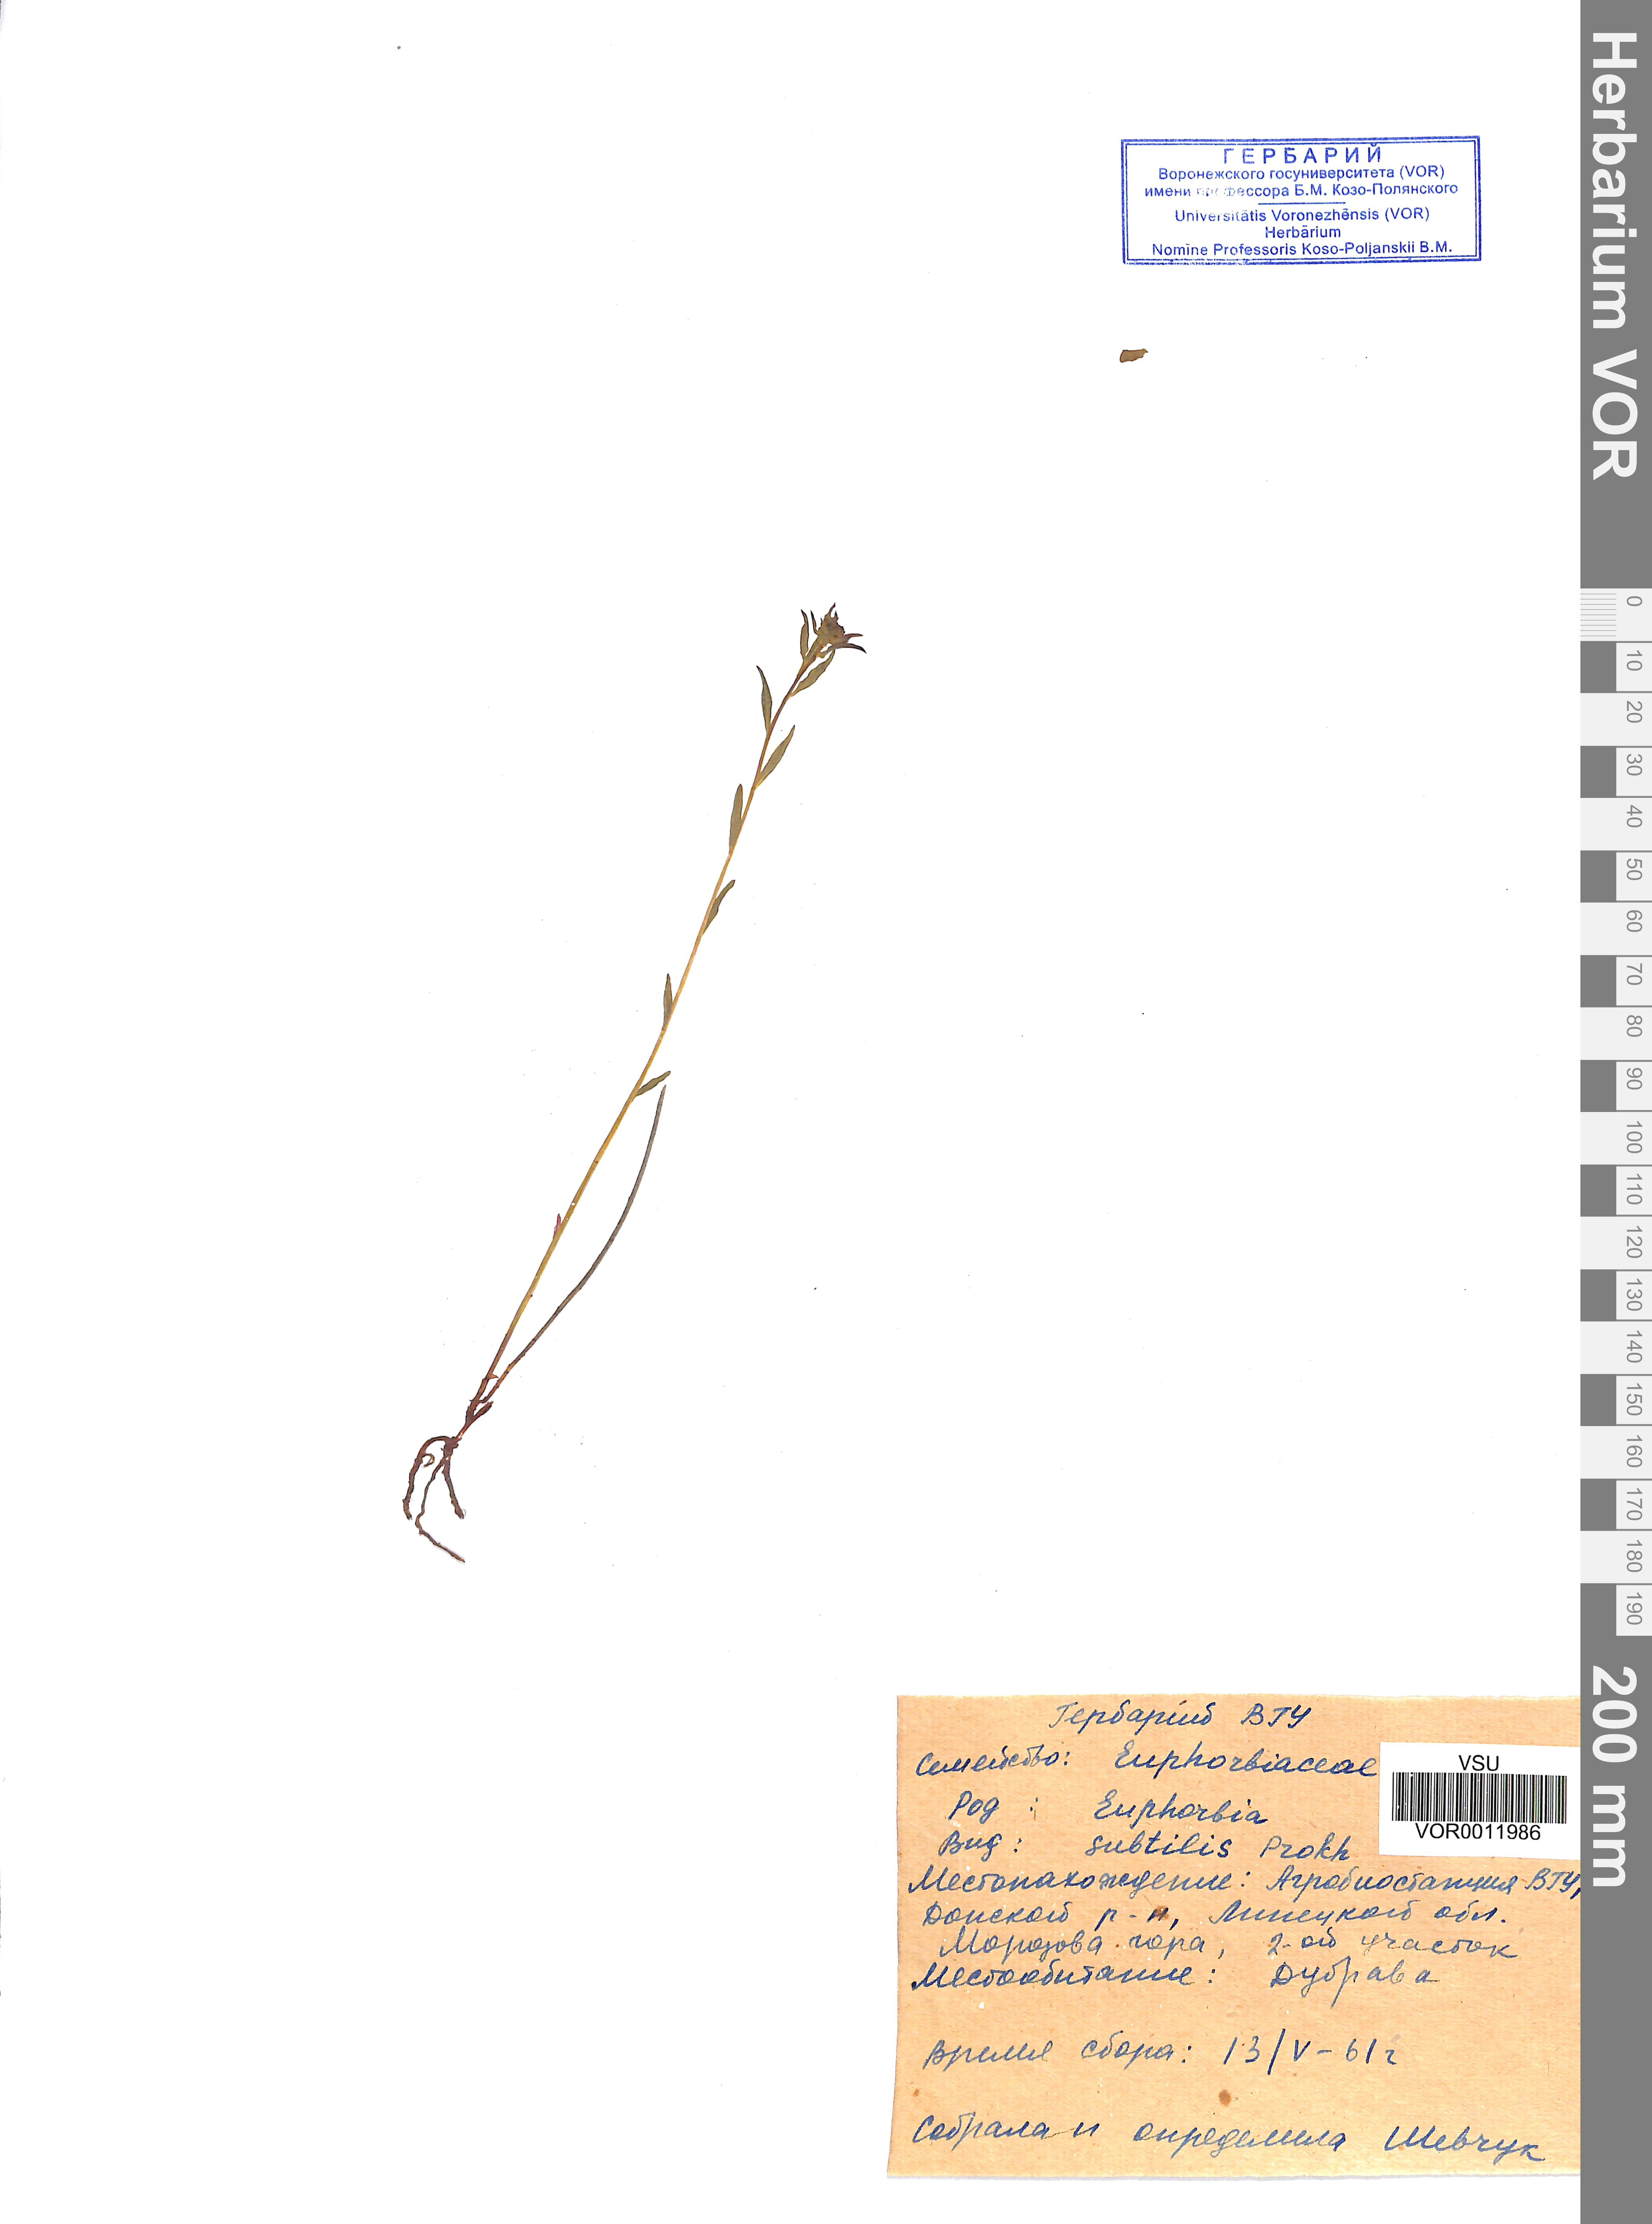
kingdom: Plantae
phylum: Tracheophyta
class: Magnoliopsida
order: Malpighiales
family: Euphorbiaceae
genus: Euphorbia
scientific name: Euphorbia microcarpa
